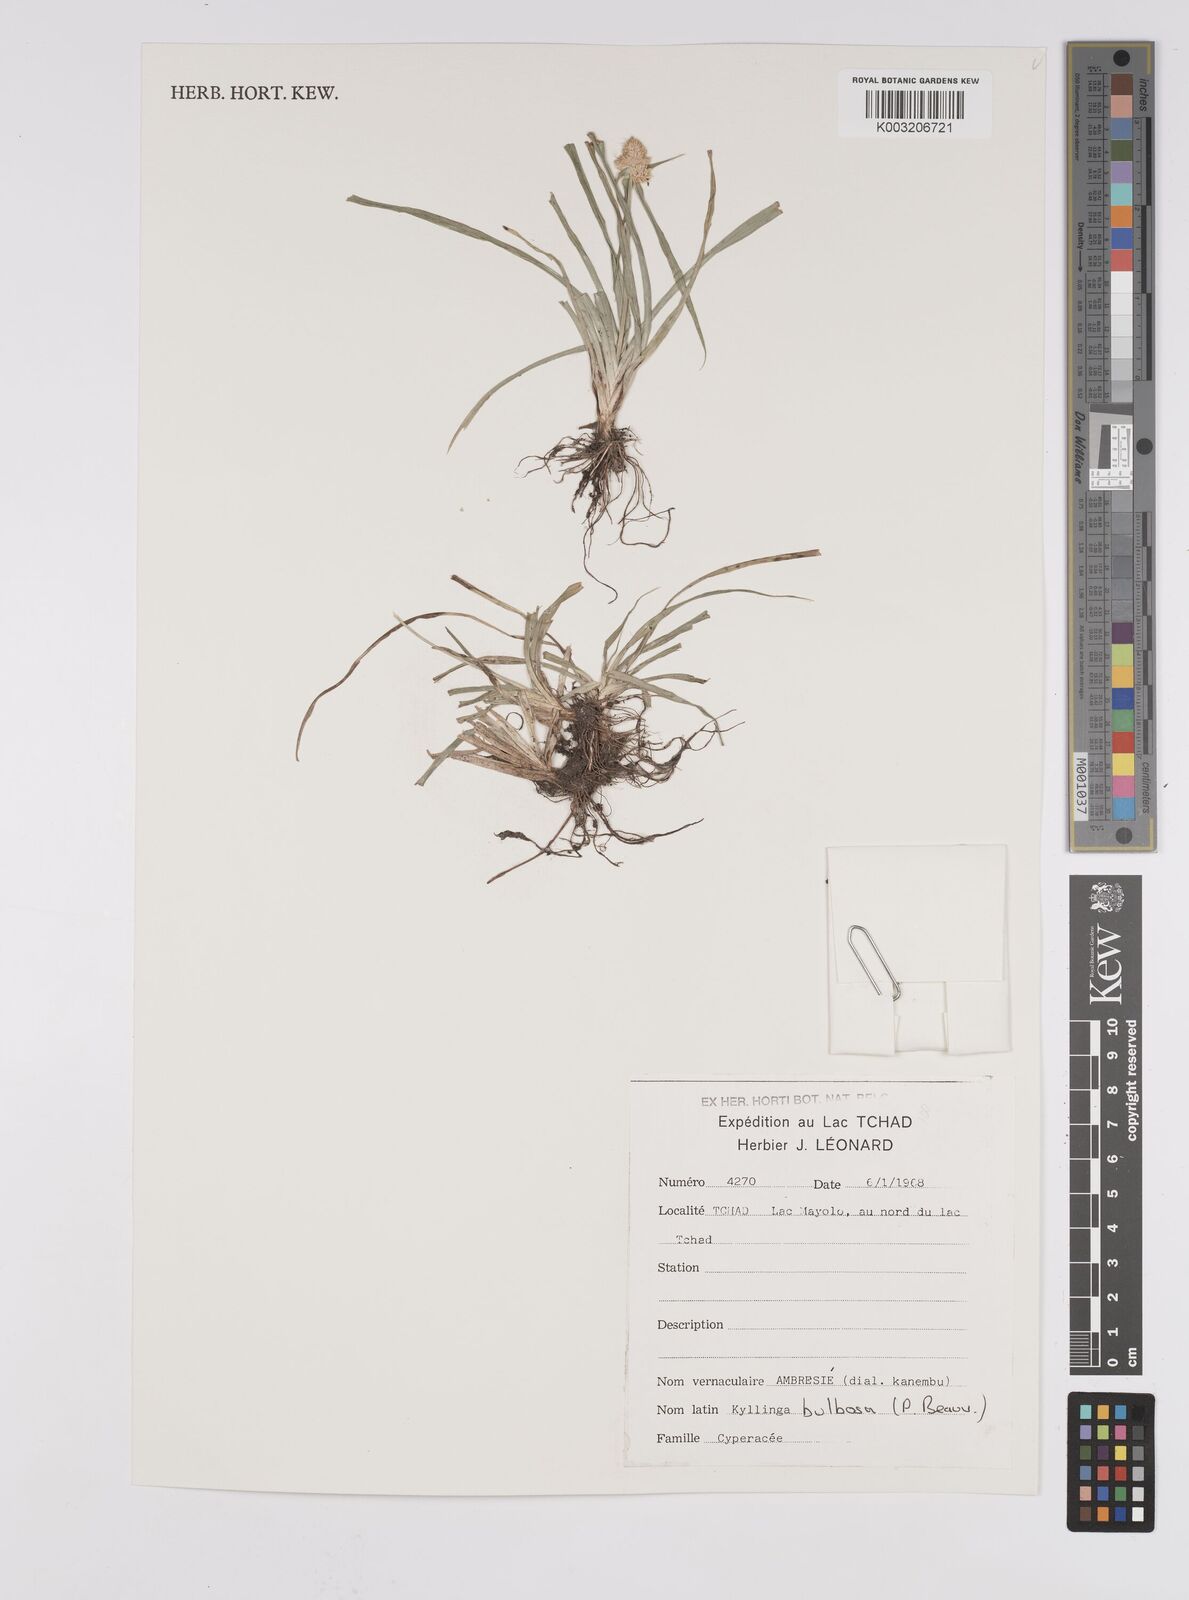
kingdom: Plantae
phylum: Tracheophyta
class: Liliopsida
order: Poales
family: Cyperaceae
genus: Cyperus
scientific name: Cyperus
